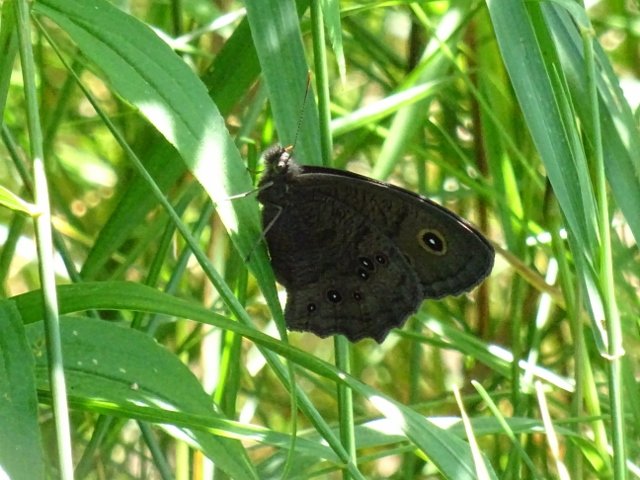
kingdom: Animalia
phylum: Arthropoda
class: Insecta
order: Lepidoptera
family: Nymphalidae
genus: Cercyonis
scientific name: Cercyonis pegala
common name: Common Wood-Nymph
